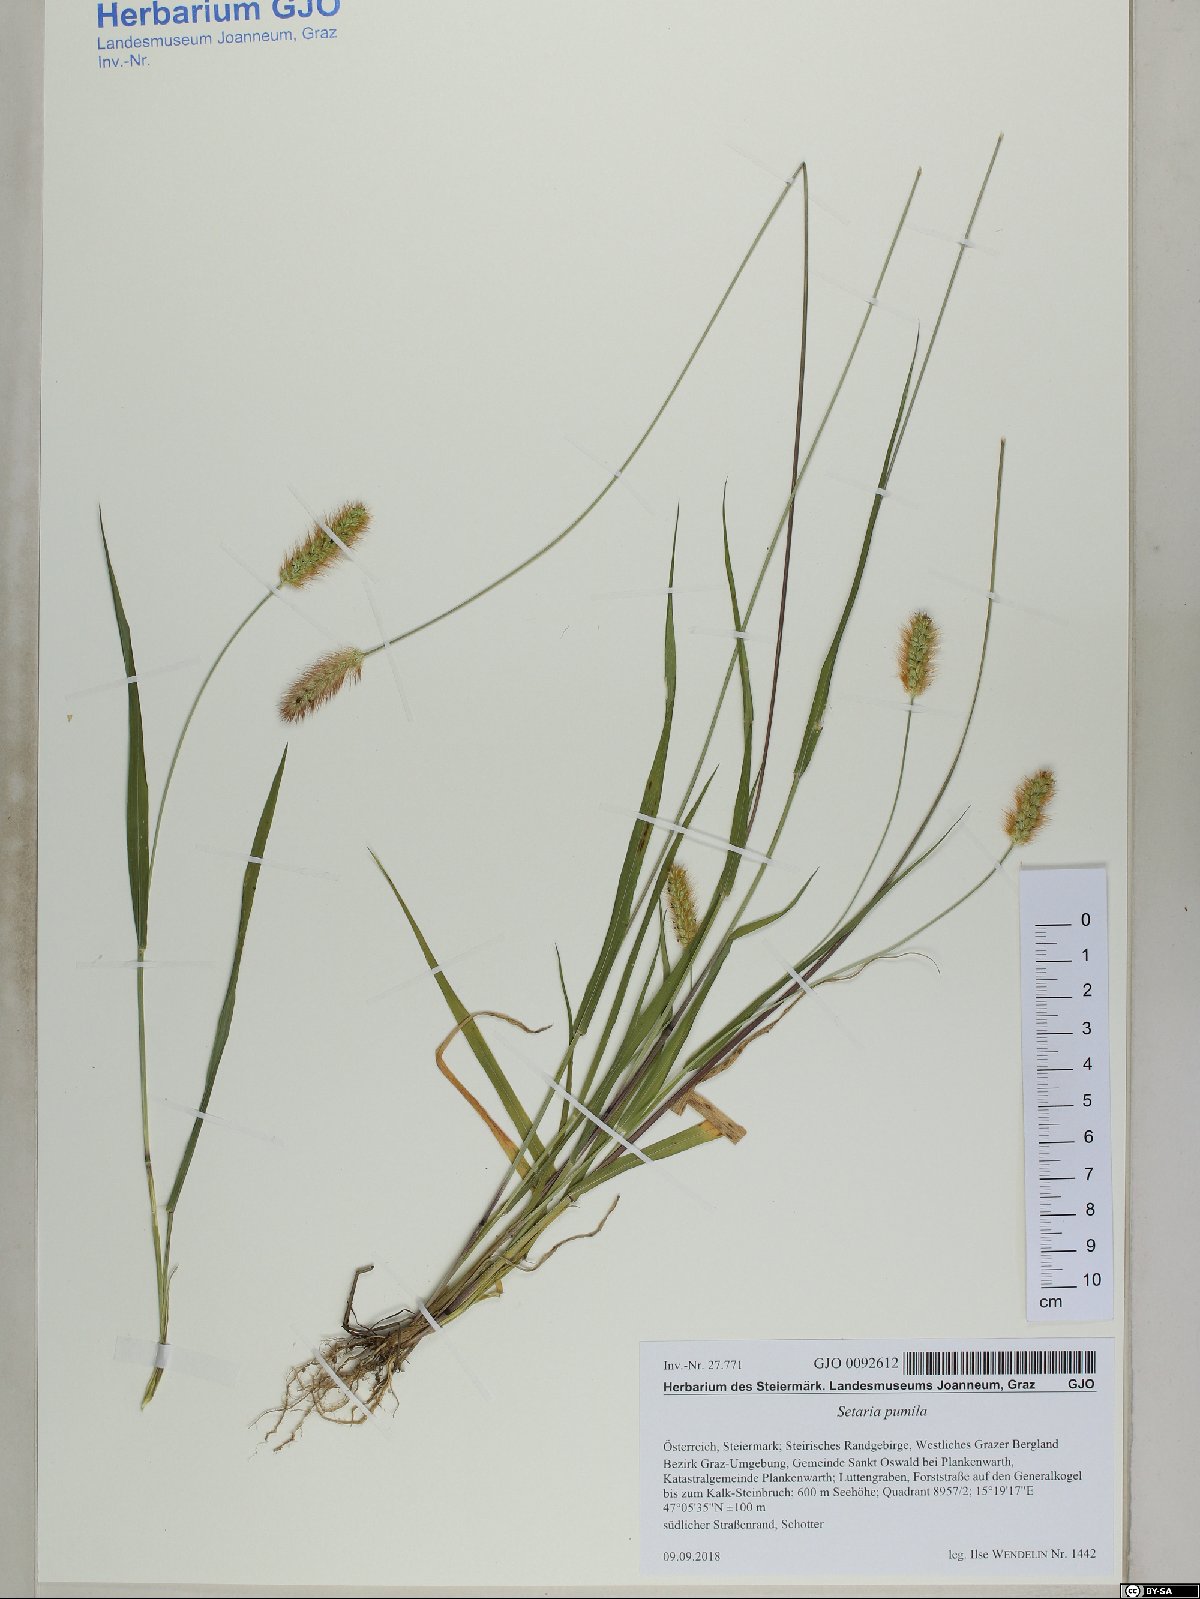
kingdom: Plantae
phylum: Tracheophyta
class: Liliopsida
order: Poales
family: Poaceae
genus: Setaria
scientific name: Setaria pumila
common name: Yellow bristle-grass
